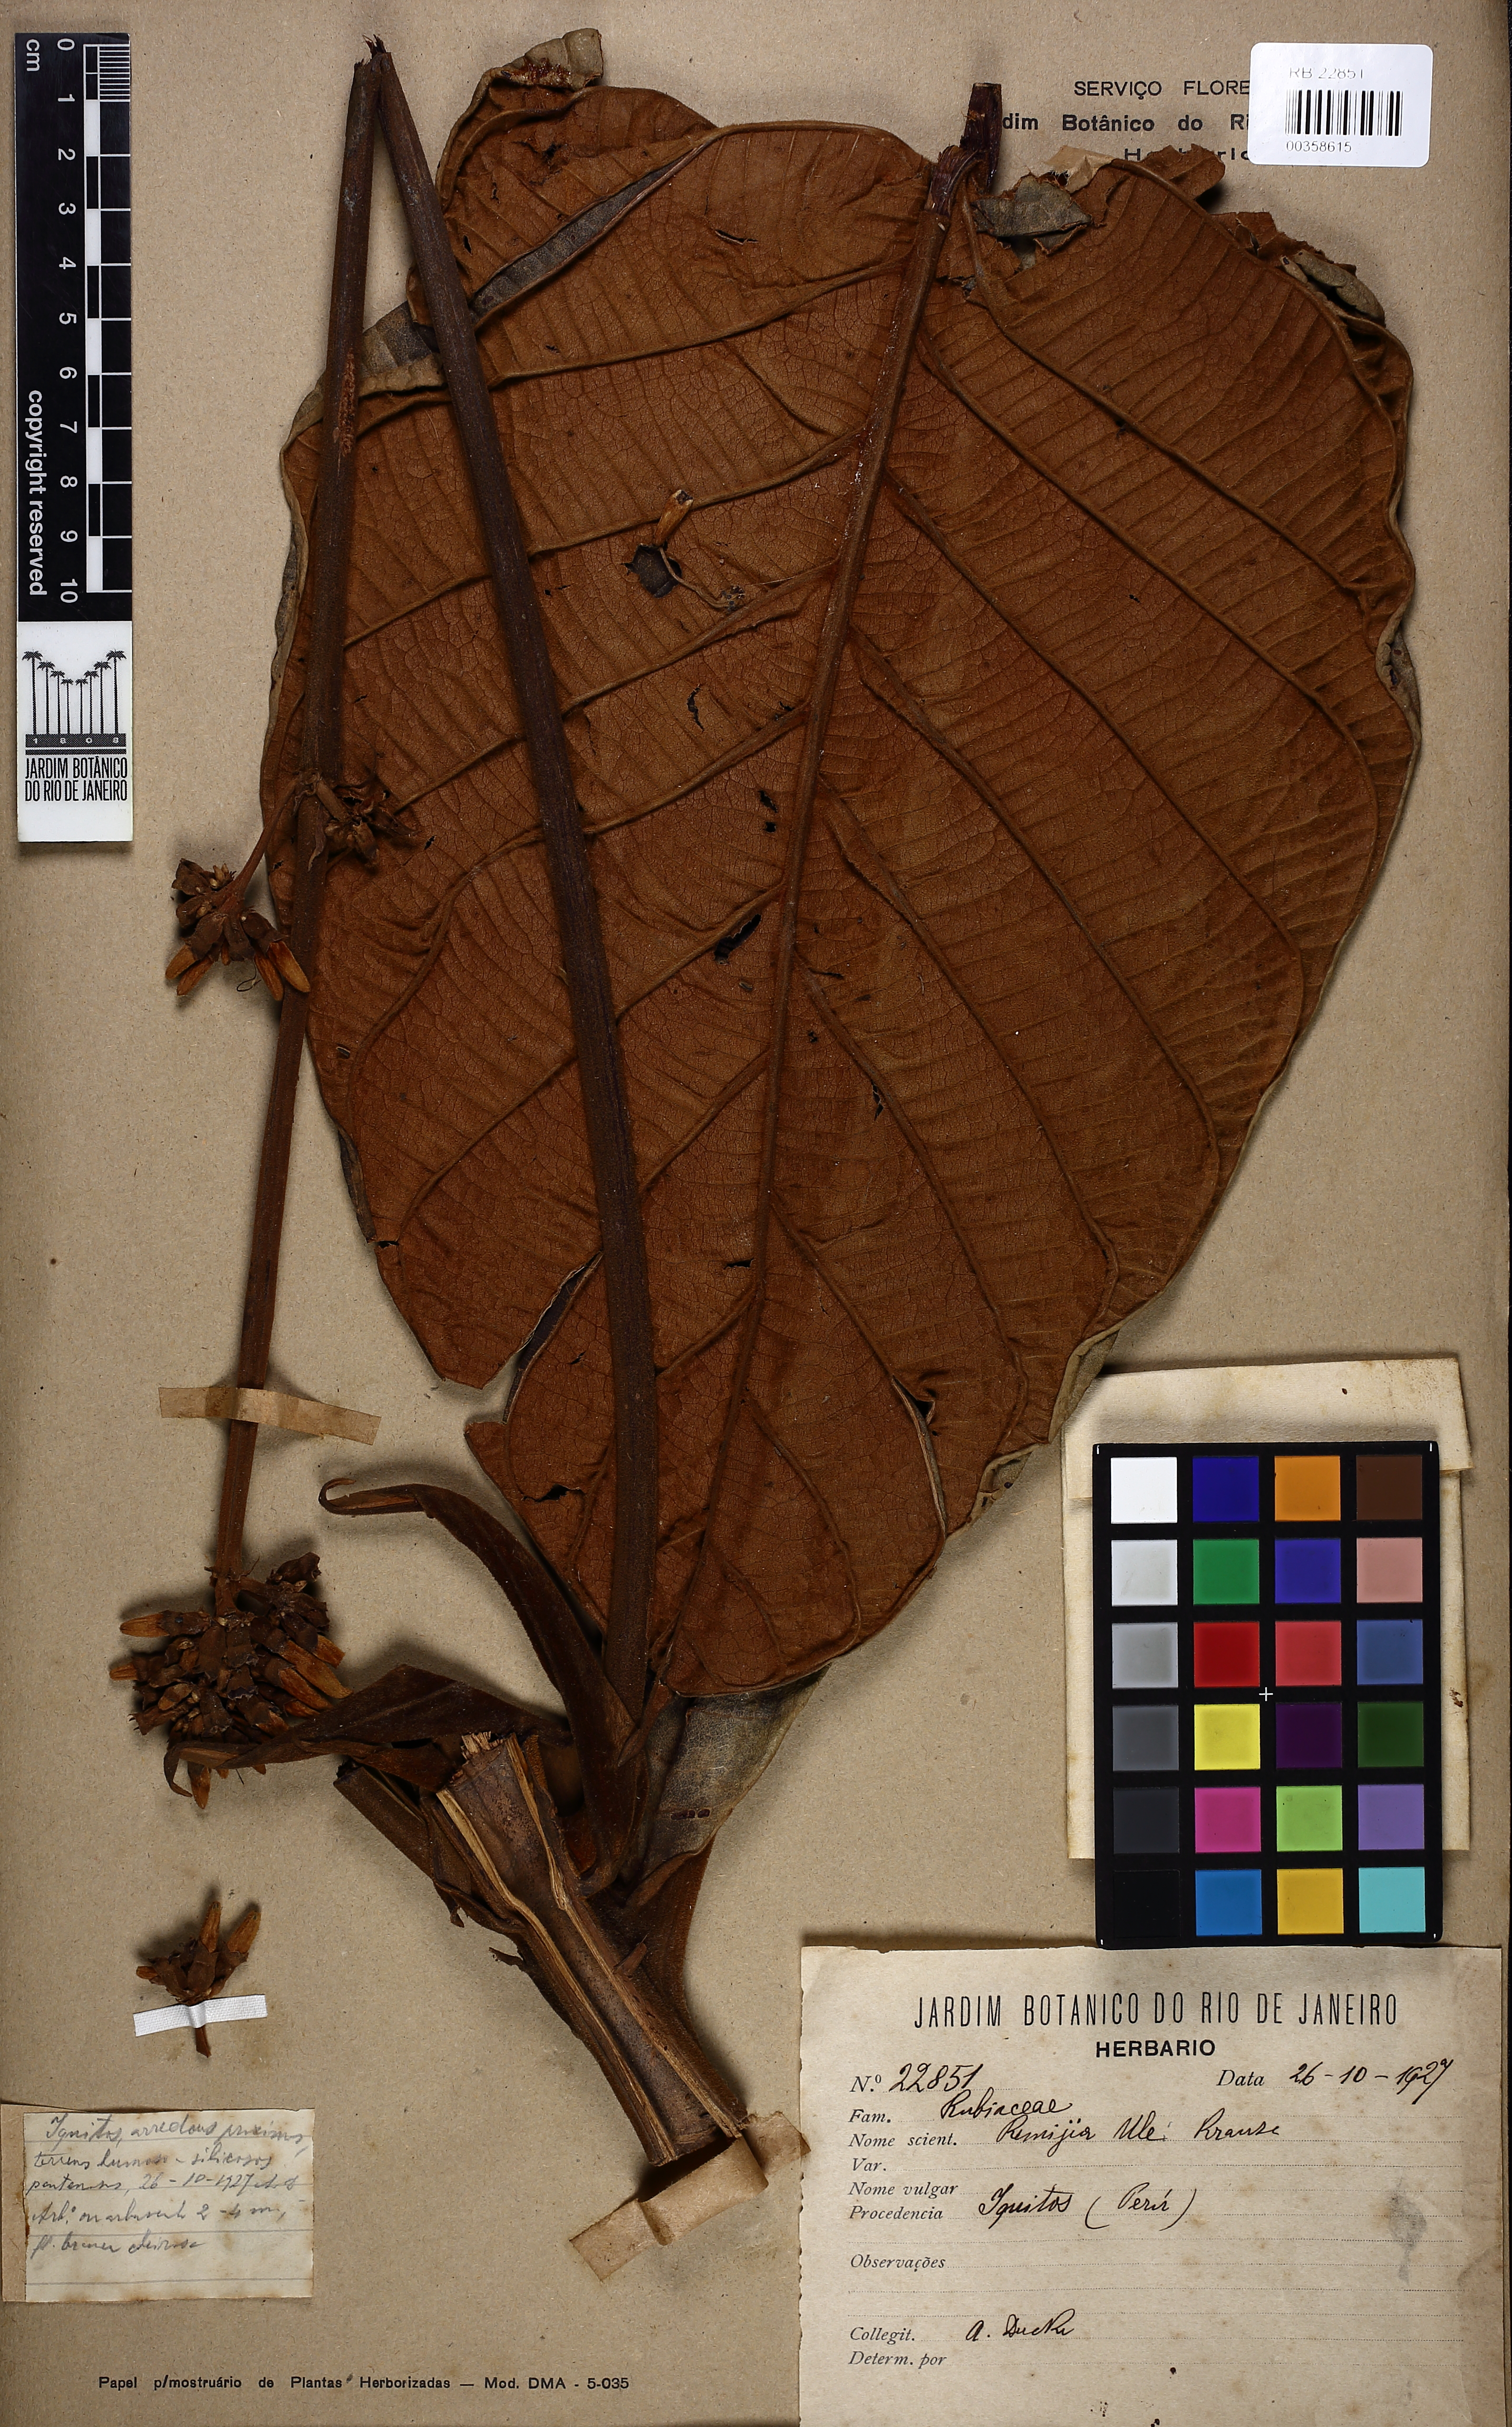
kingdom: Plantae
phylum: Tracheophyta
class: Magnoliopsida
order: Gentianales
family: Rubiaceae
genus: Remijia
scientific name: Remijia ulei
